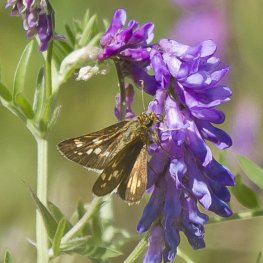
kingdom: Animalia
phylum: Arthropoda
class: Insecta
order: Lepidoptera
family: Hesperiidae
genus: Polites
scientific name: Polites coras
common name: Peck's Skipper
